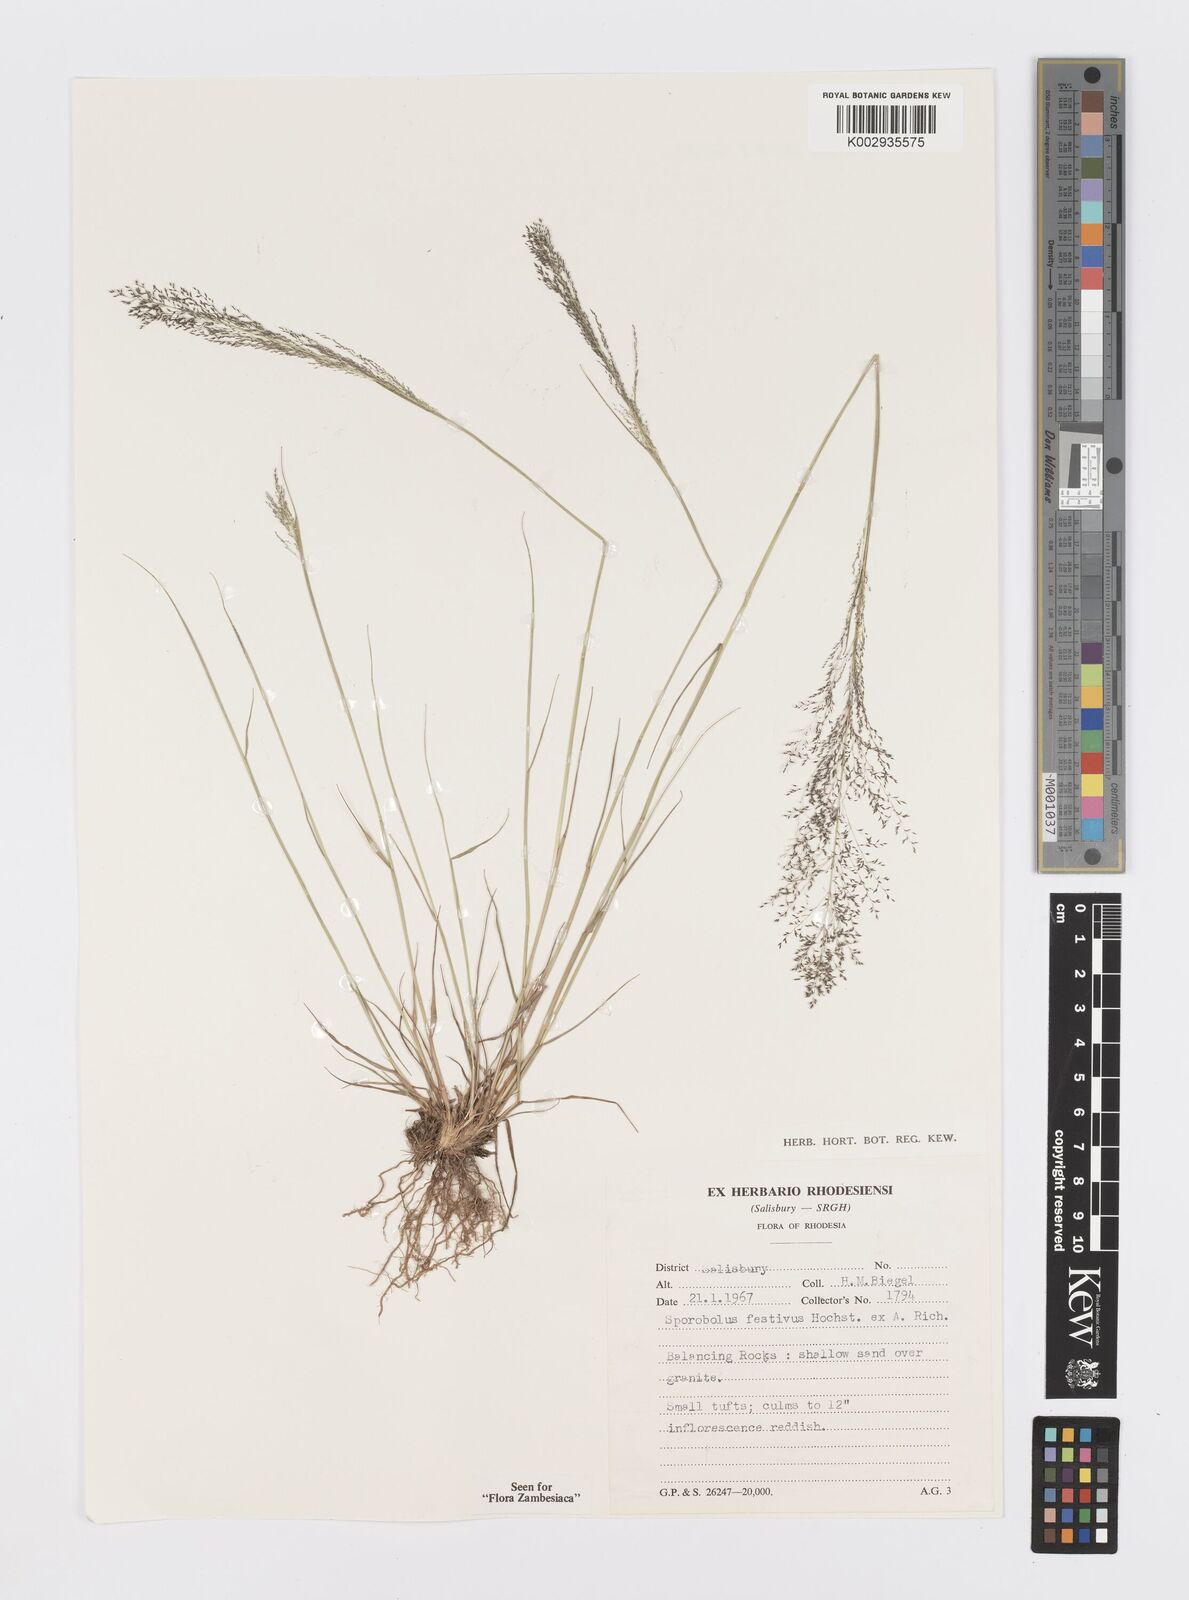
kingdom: Plantae
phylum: Tracheophyta
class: Liliopsida
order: Poales
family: Poaceae
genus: Sporobolus
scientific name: Sporobolus festivus
